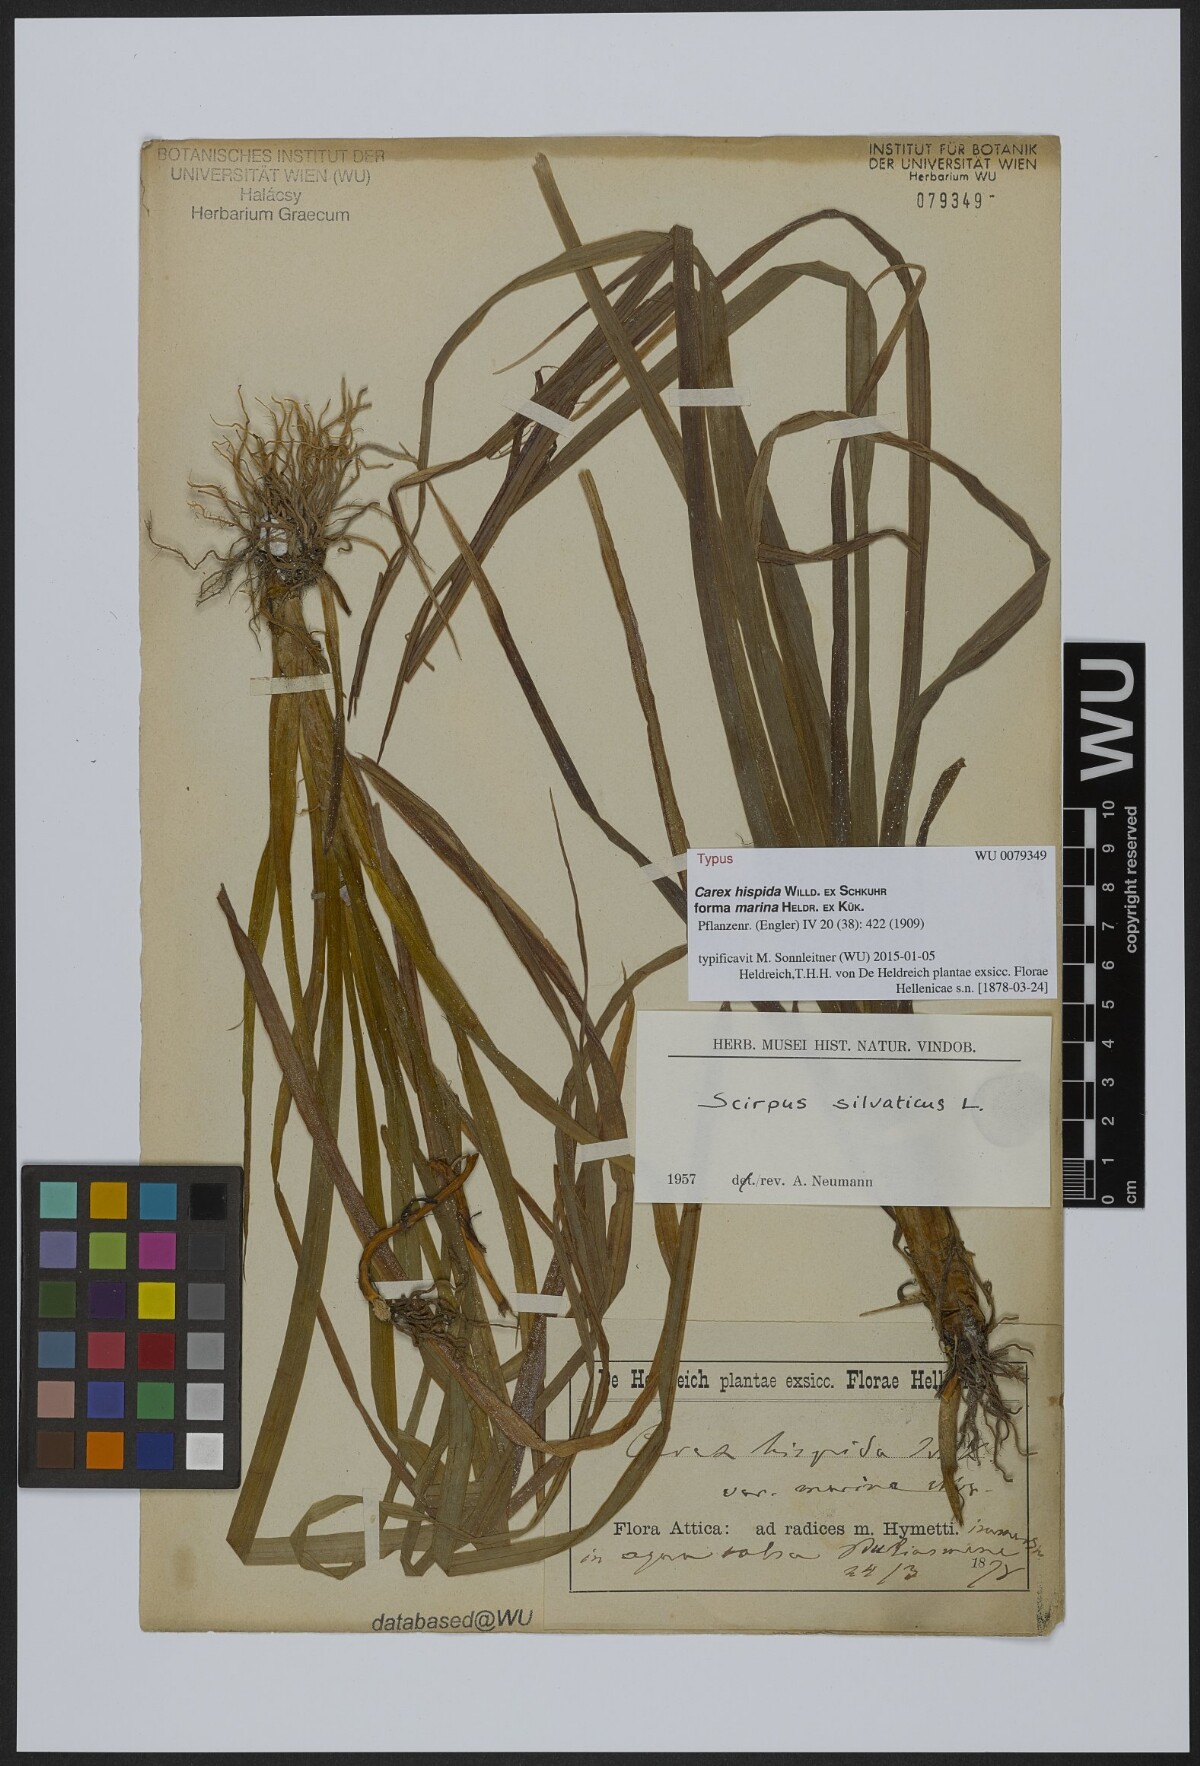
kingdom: Plantae
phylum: Tracheophyta
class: Liliopsida
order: Poales
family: Cyperaceae
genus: Carex
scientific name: Carex hispida
